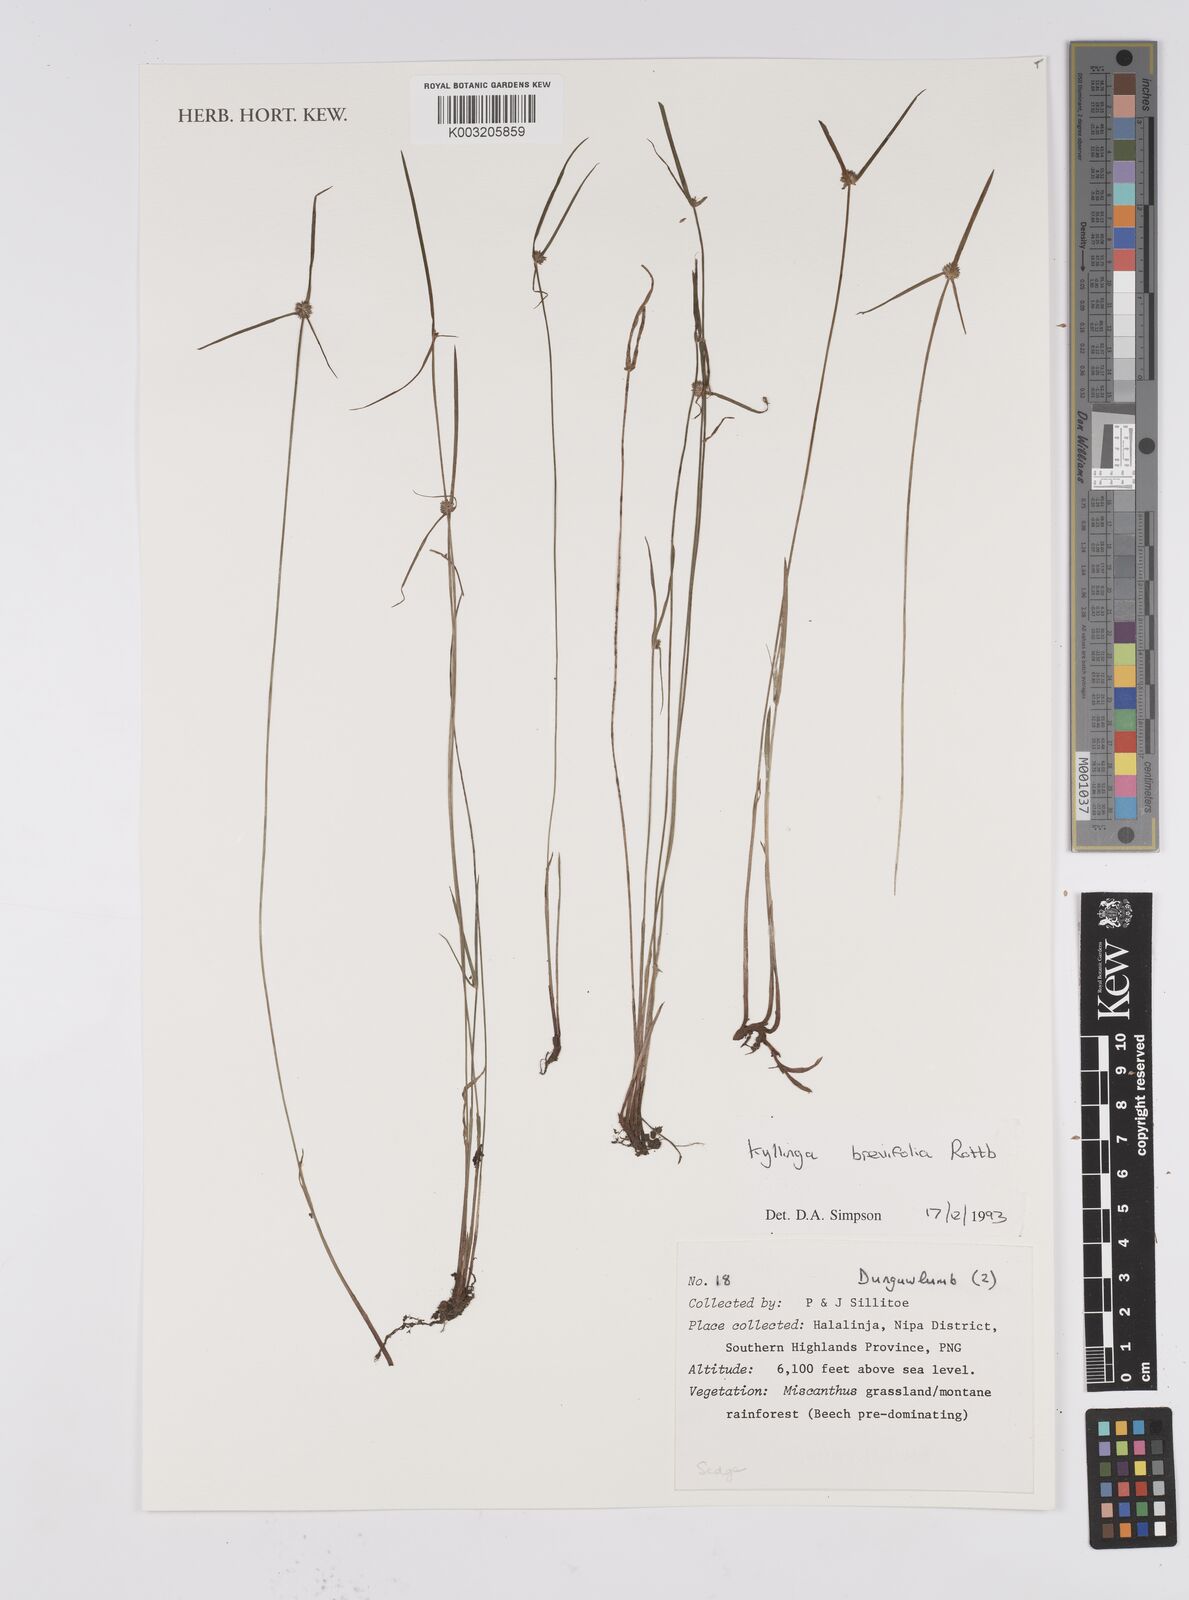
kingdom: Plantae
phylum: Tracheophyta
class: Liliopsida
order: Poales
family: Cyperaceae
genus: Cyperus
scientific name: Cyperus brevifolius
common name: Globe kyllinga
